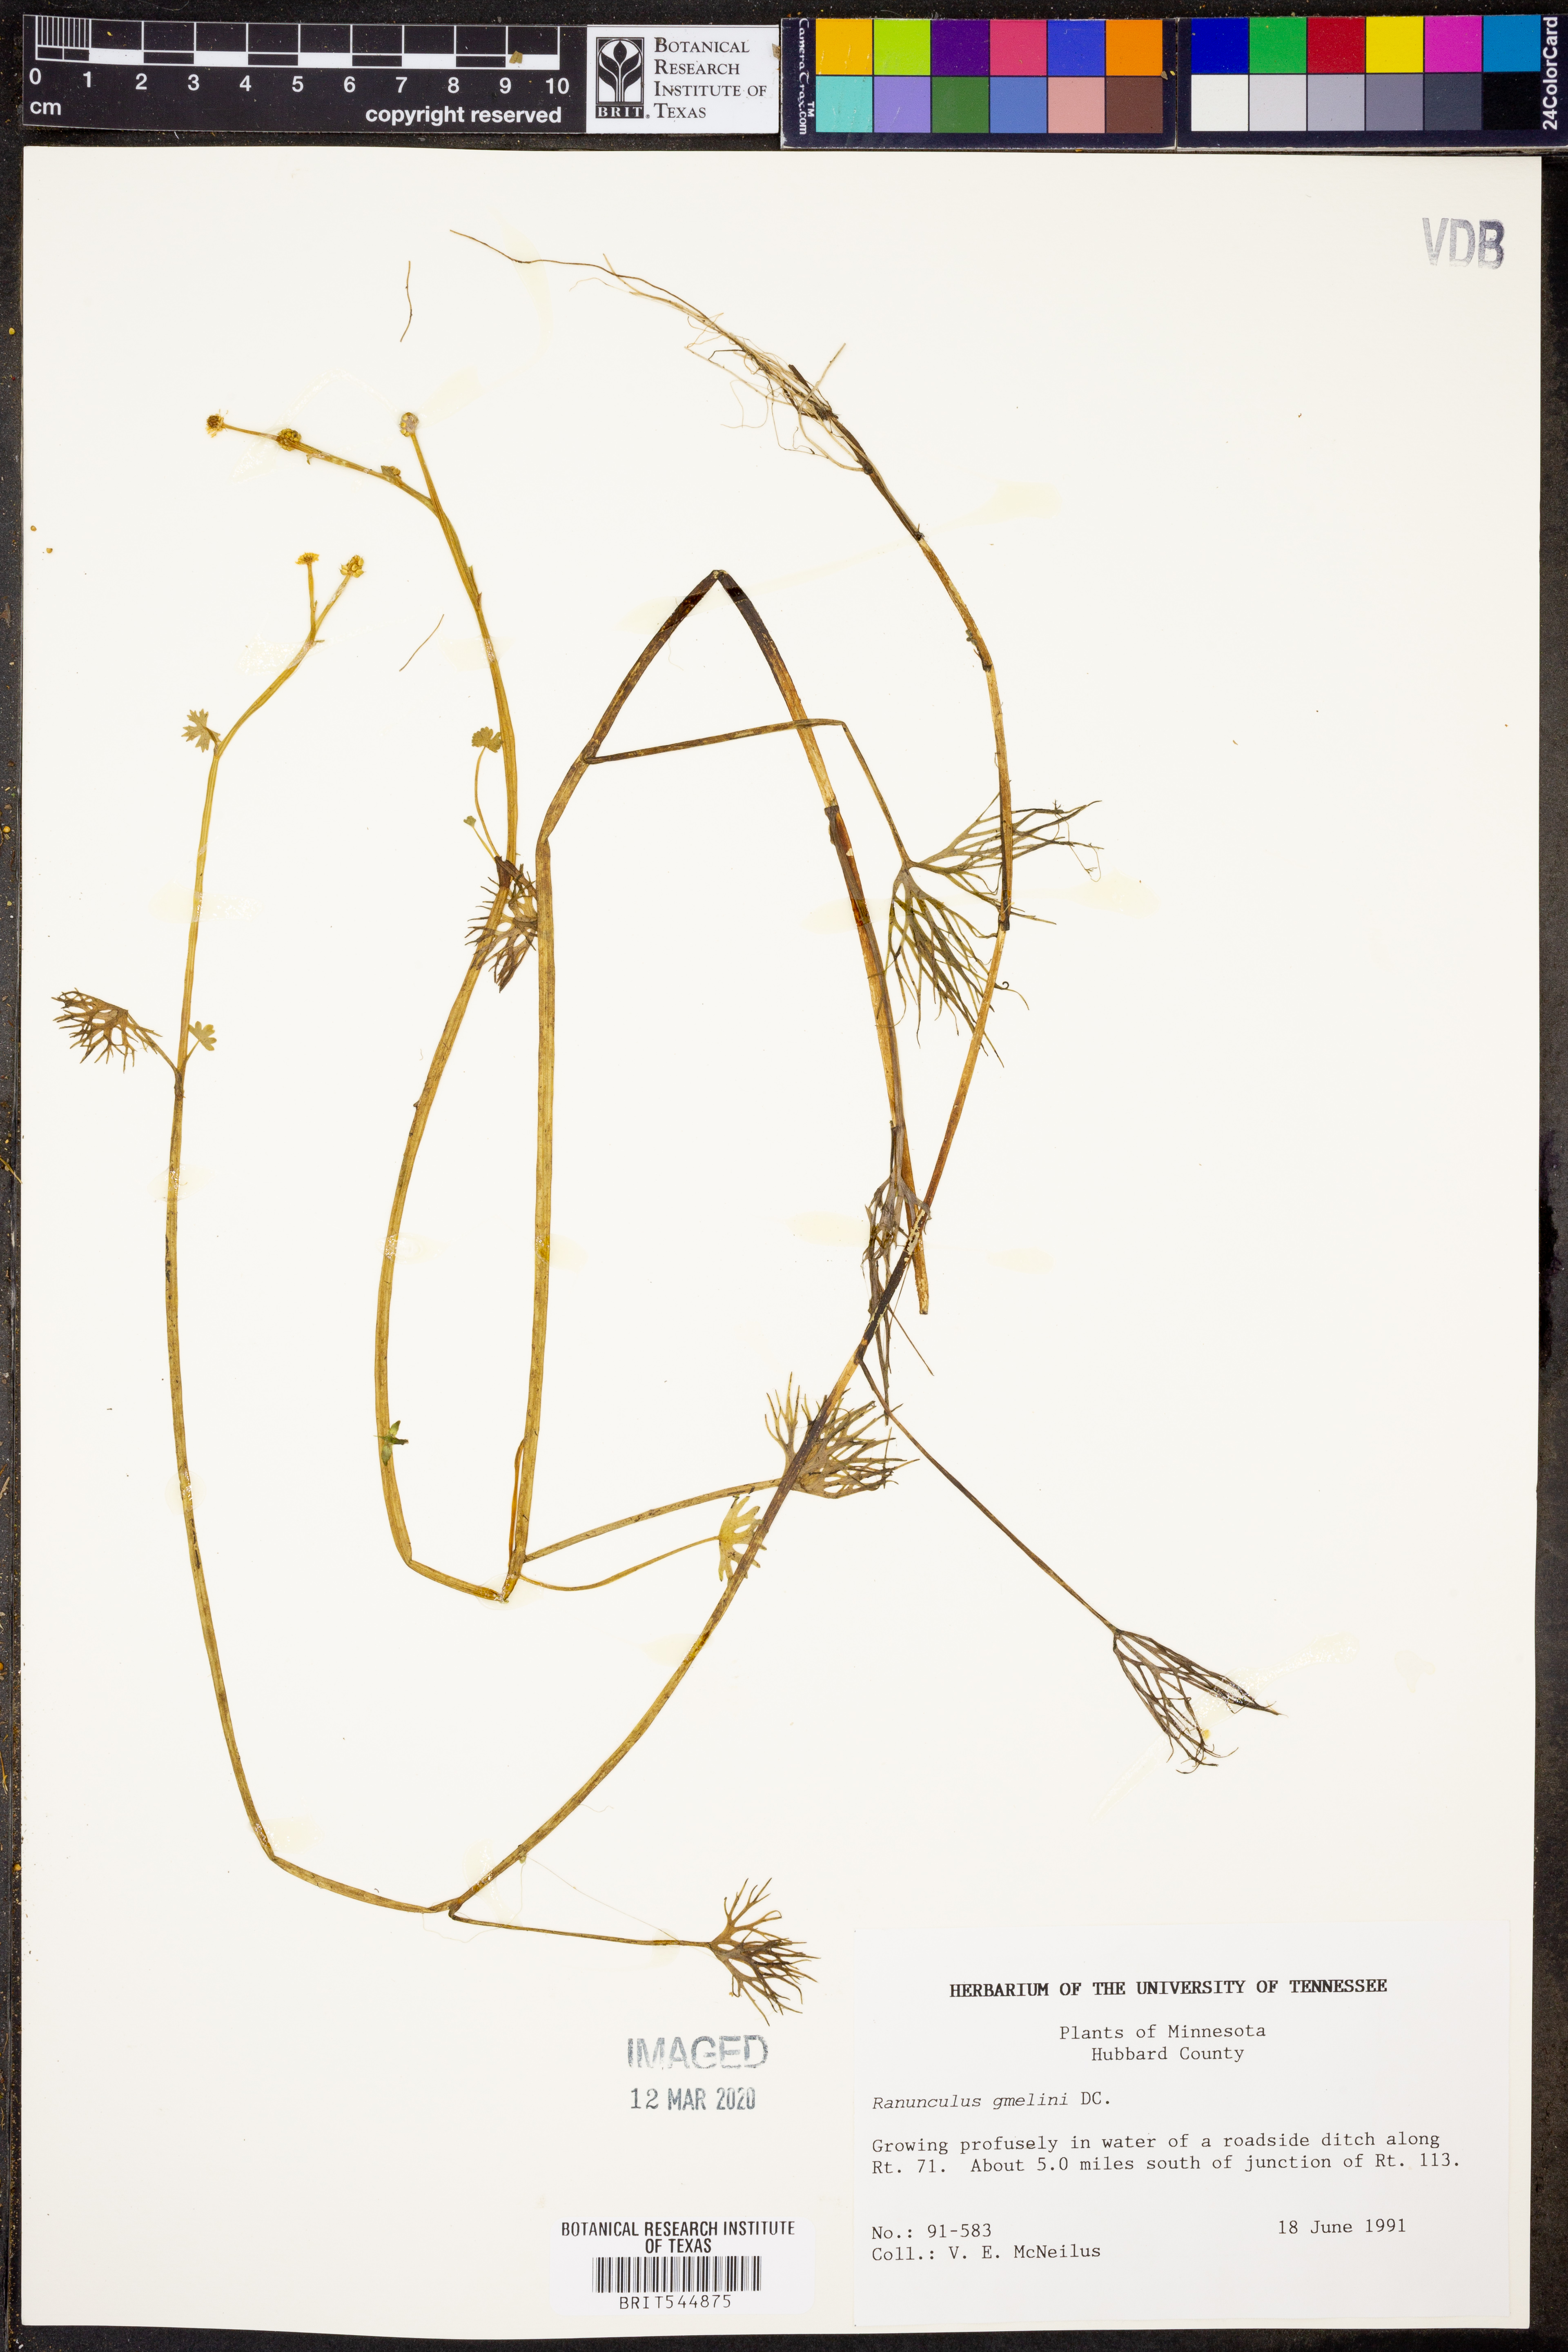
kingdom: Plantae
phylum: Tracheophyta
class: Magnoliopsida
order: Ranunculales
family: Ranunculaceae
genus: Ranunculus
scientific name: Ranunculus aquatilis
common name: Common water-crowfoot
